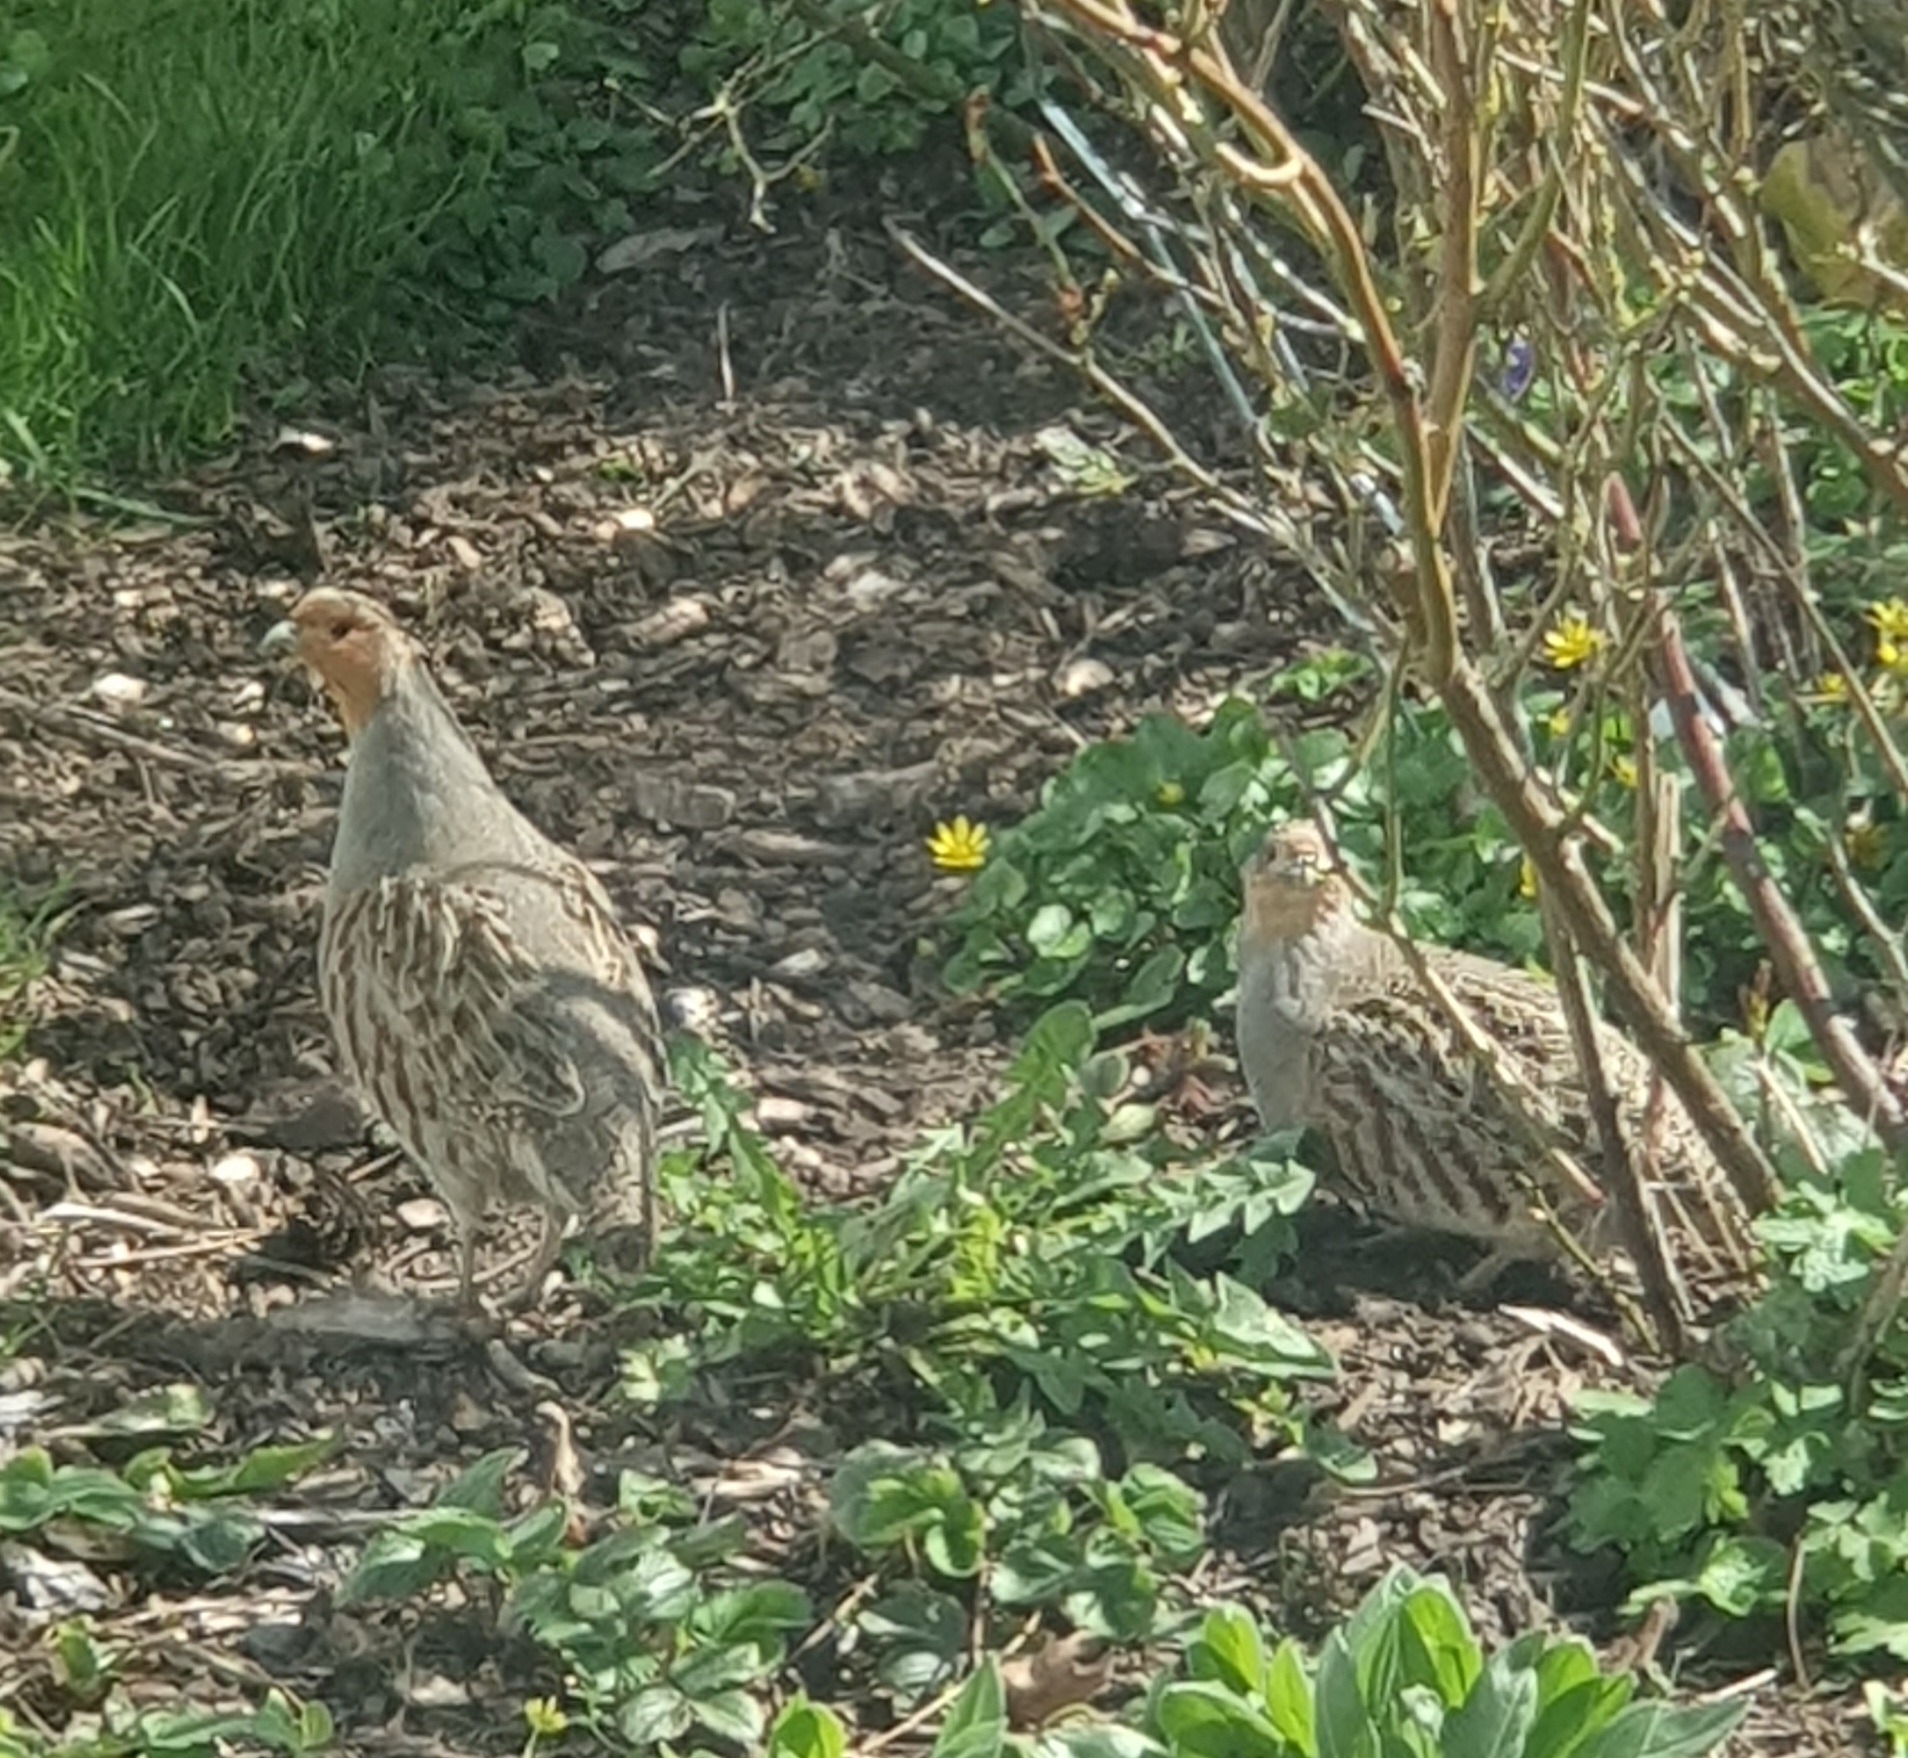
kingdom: Animalia
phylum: Chordata
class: Aves
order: Galliformes
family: Phasianidae
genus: Perdix
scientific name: Perdix perdix
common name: Agerhøne
